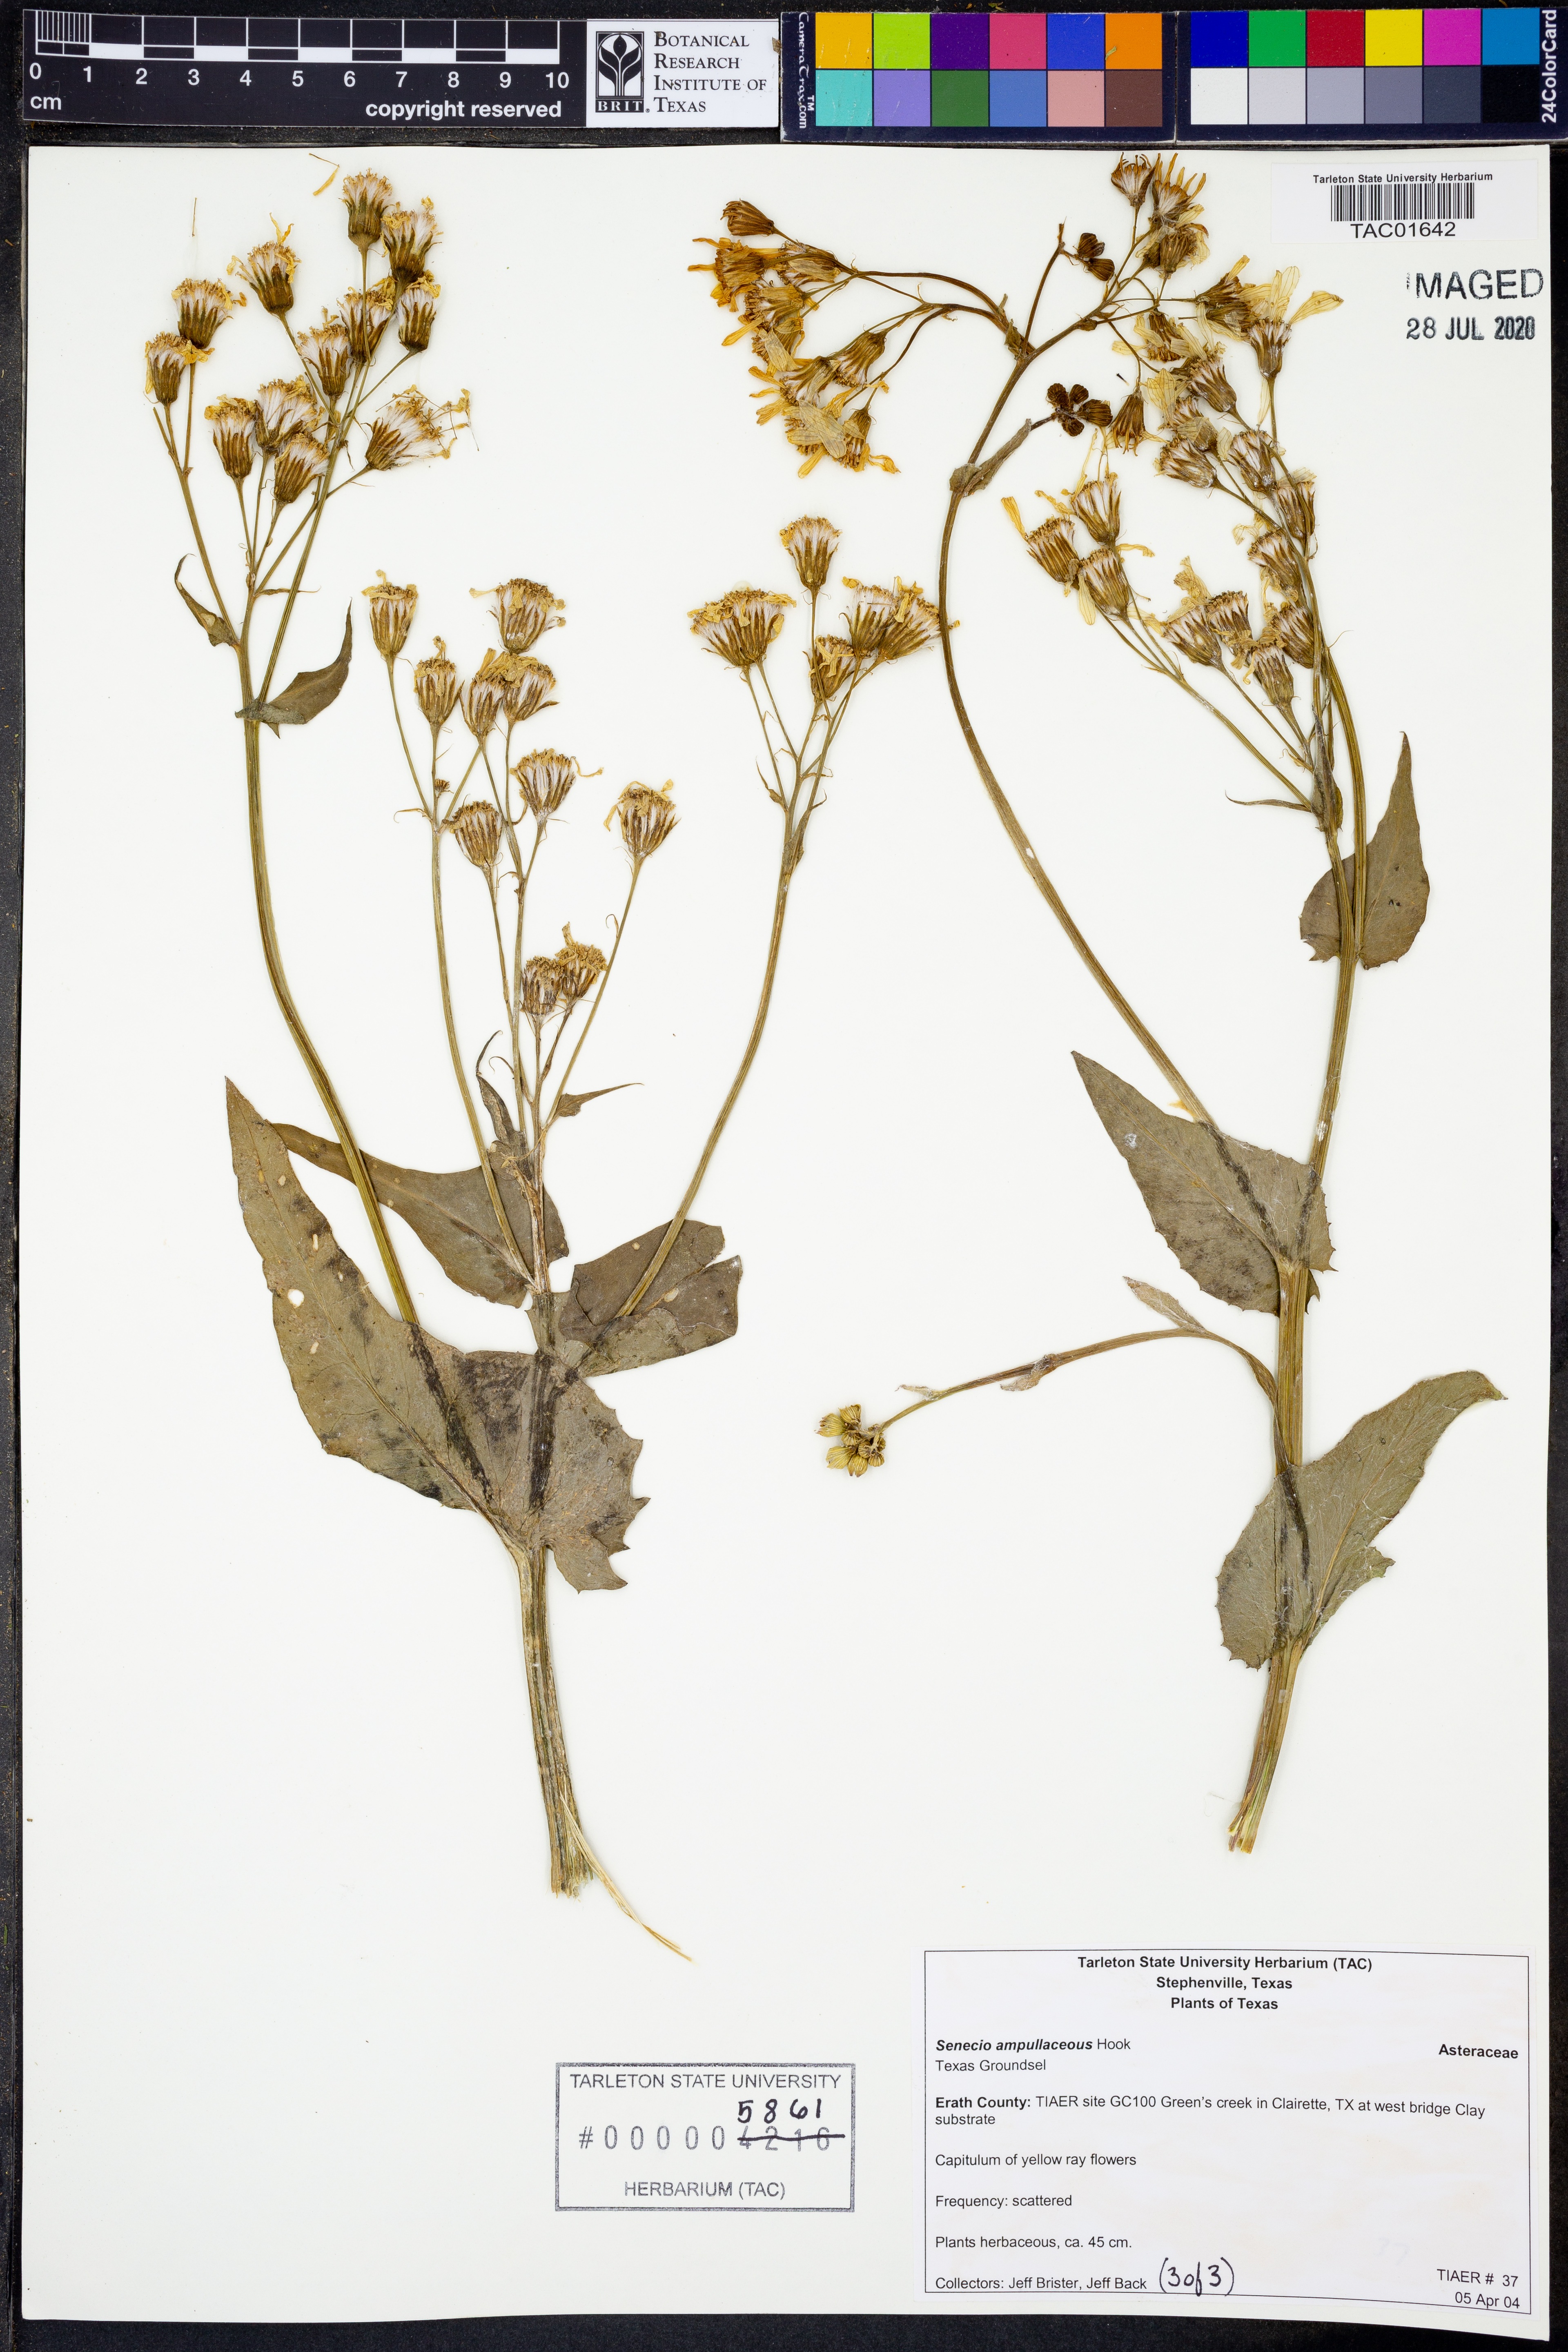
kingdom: Plantae
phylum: Tracheophyta
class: Magnoliopsida
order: Asterales
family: Asteraceae
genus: Senecio
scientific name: Senecio ampullaceus
